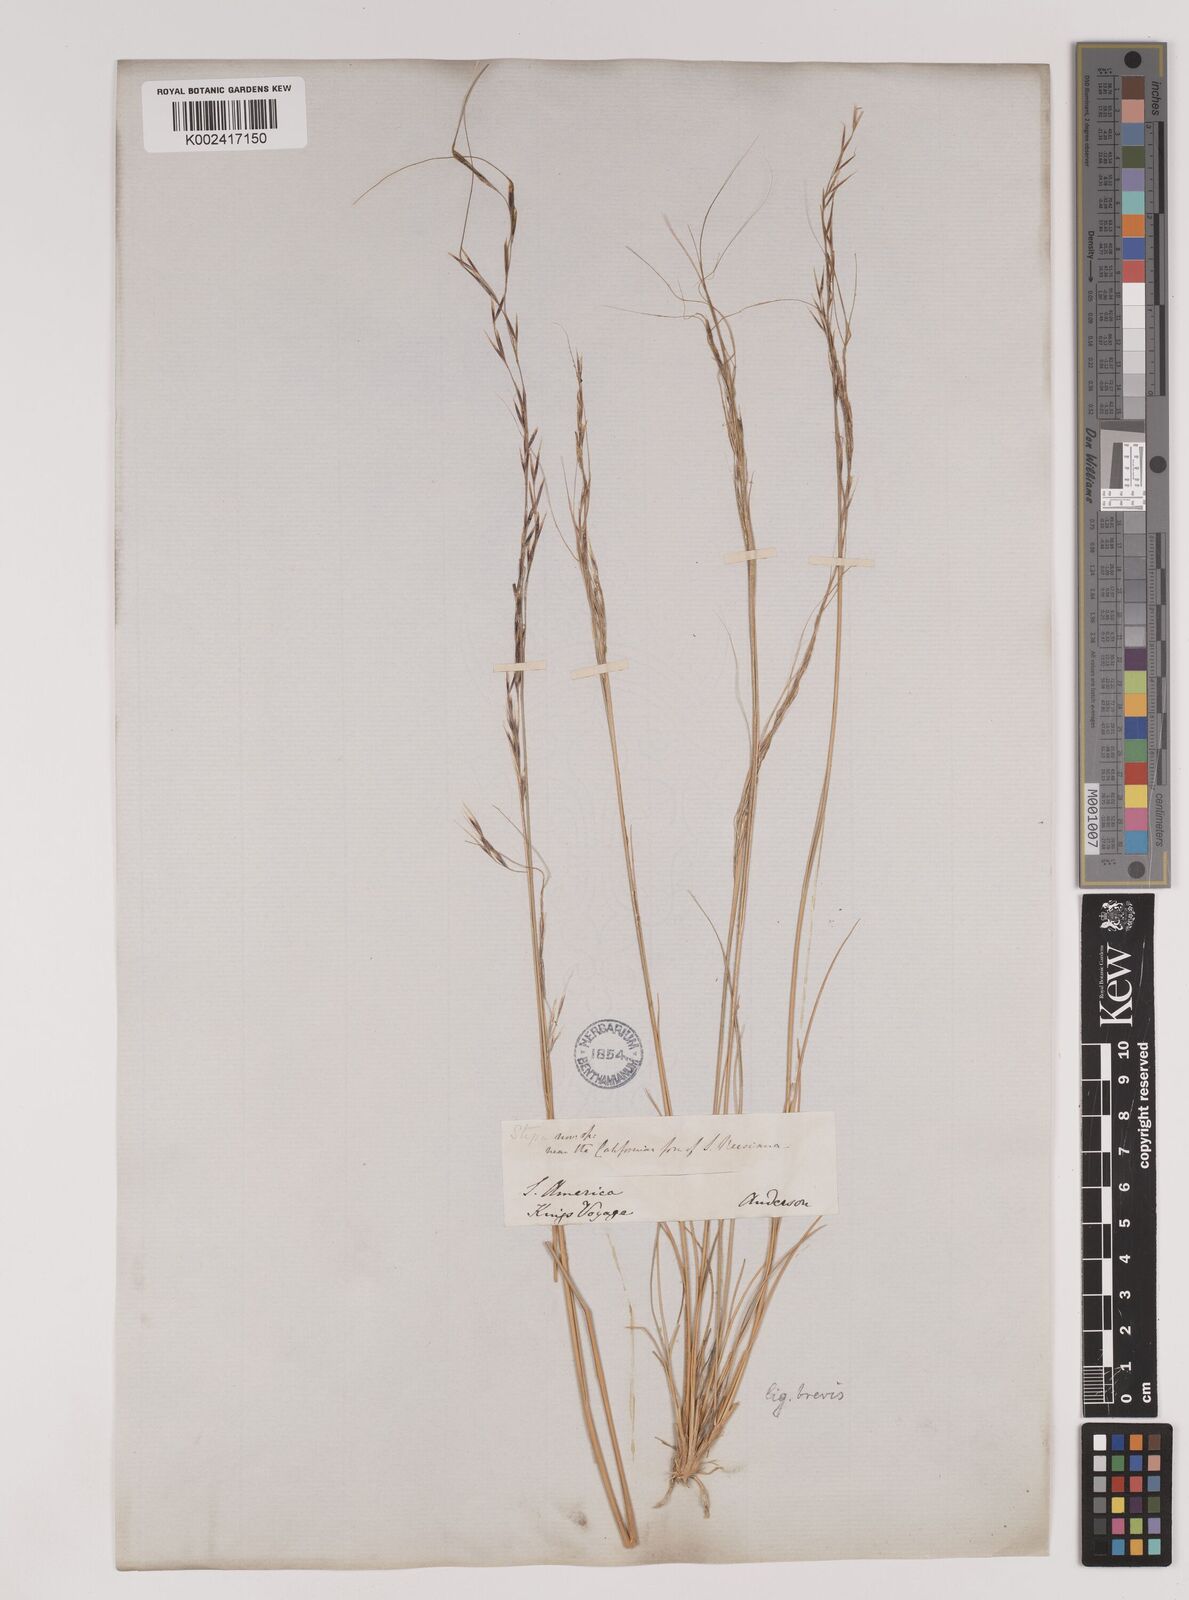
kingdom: Plantae
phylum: Tracheophyta
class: Liliopsida
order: Poales
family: Poaceae
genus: Stipa
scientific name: Stipa
